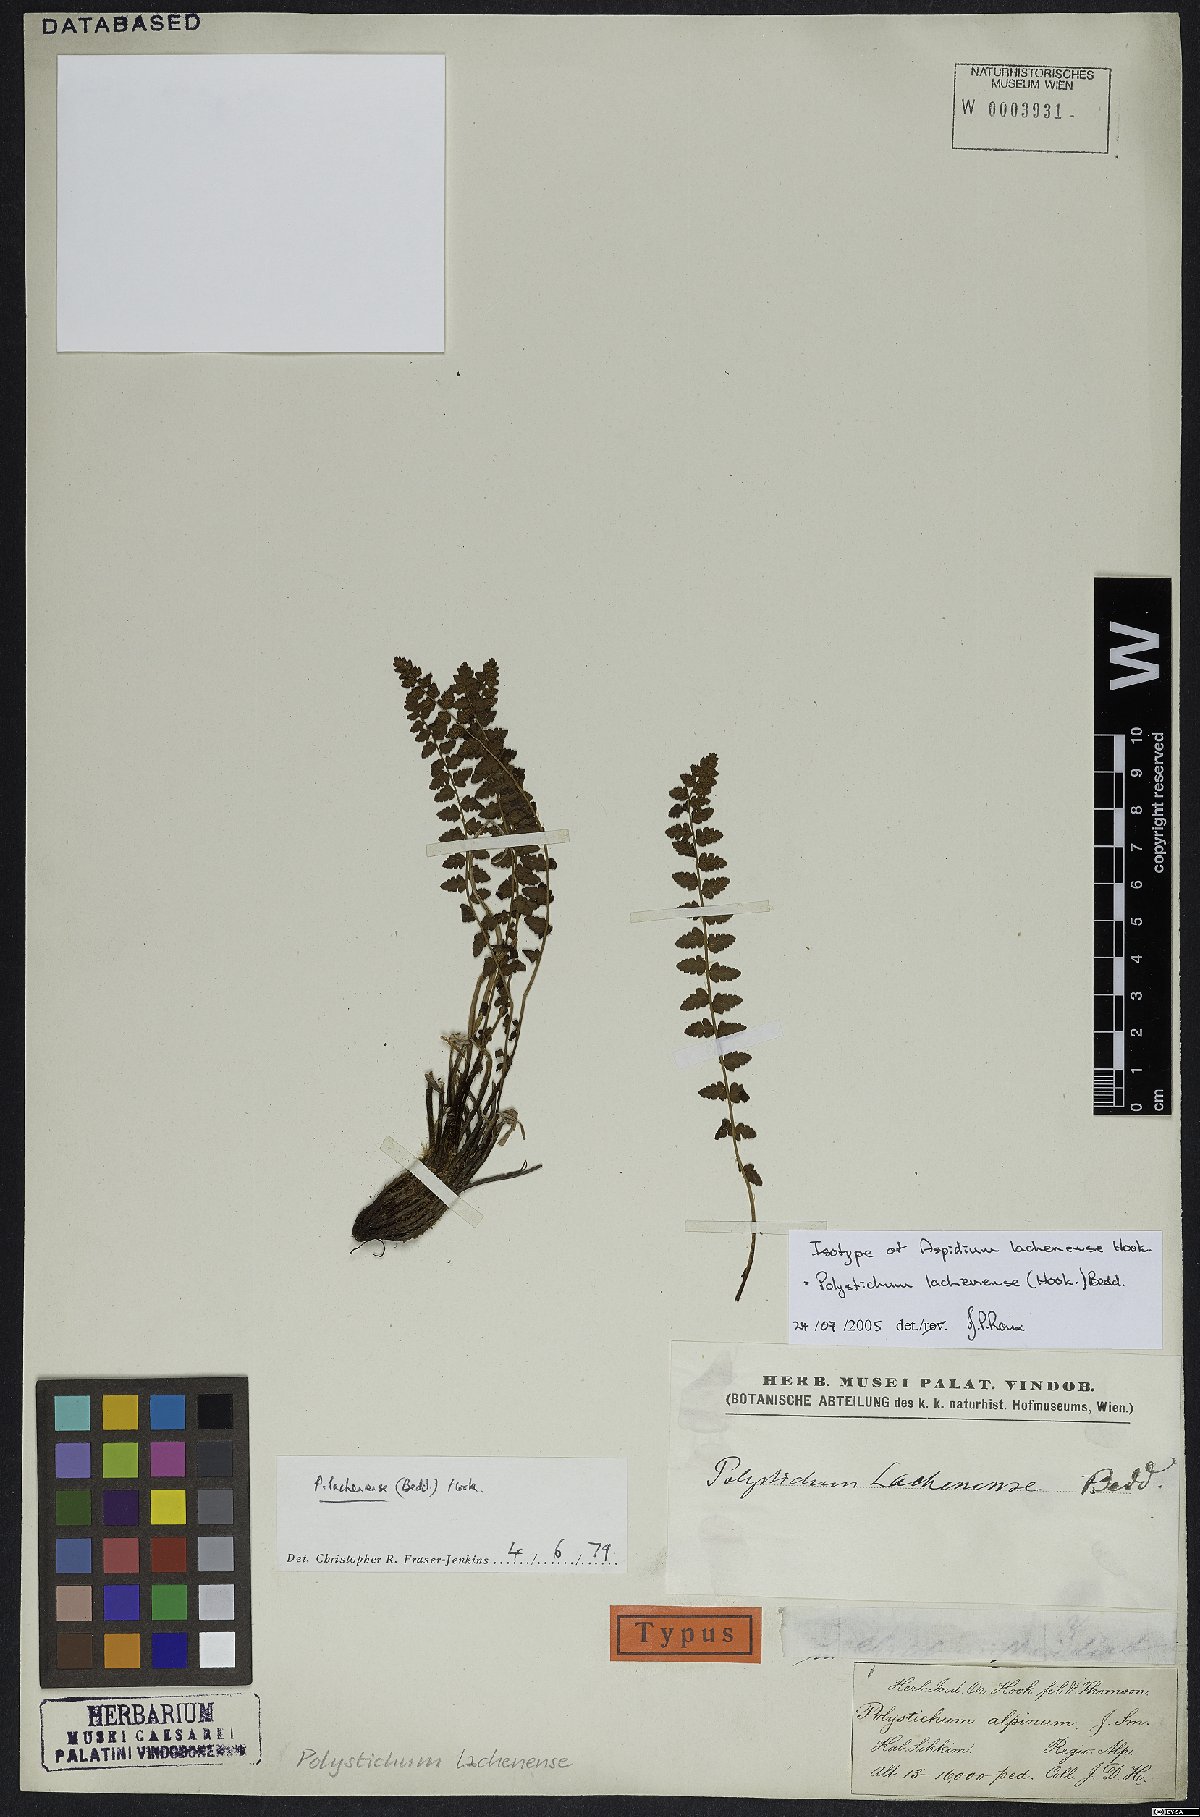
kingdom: Plantae
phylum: Tracheophyta
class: Polypodiopsida
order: Polypodiales
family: Dryopteridaceae
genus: Polystichum
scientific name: Polystichum lachenense
